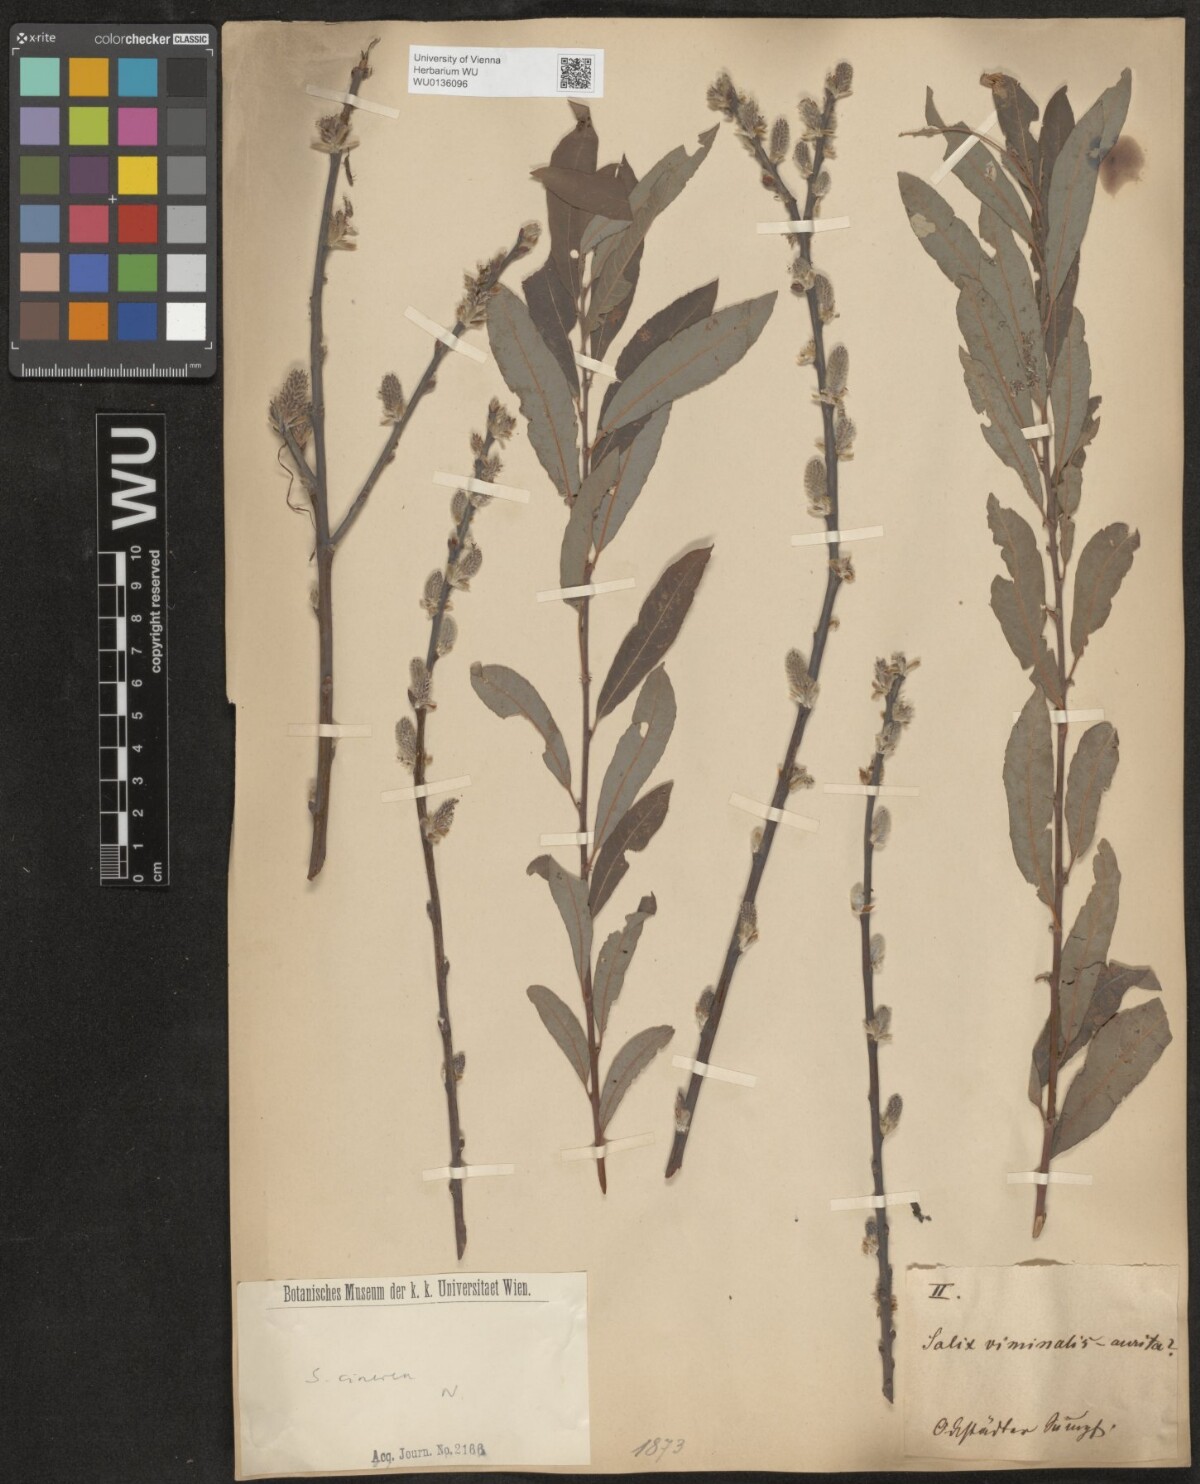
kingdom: Plantae
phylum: Tracheophyta
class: Magnoliopsida
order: Malpighiales
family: Salicaceae
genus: Salix
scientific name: Salix cinerea
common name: Common sallow
